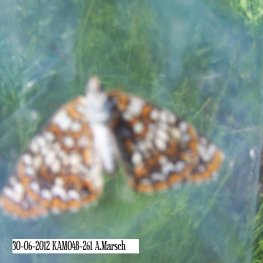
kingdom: Animalia
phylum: Arthropoda
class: Insecta
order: Lepidoptera
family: Nymphalidae
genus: Chlosyne
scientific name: Chlosyne harrisii
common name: Harris's Checkerspot
